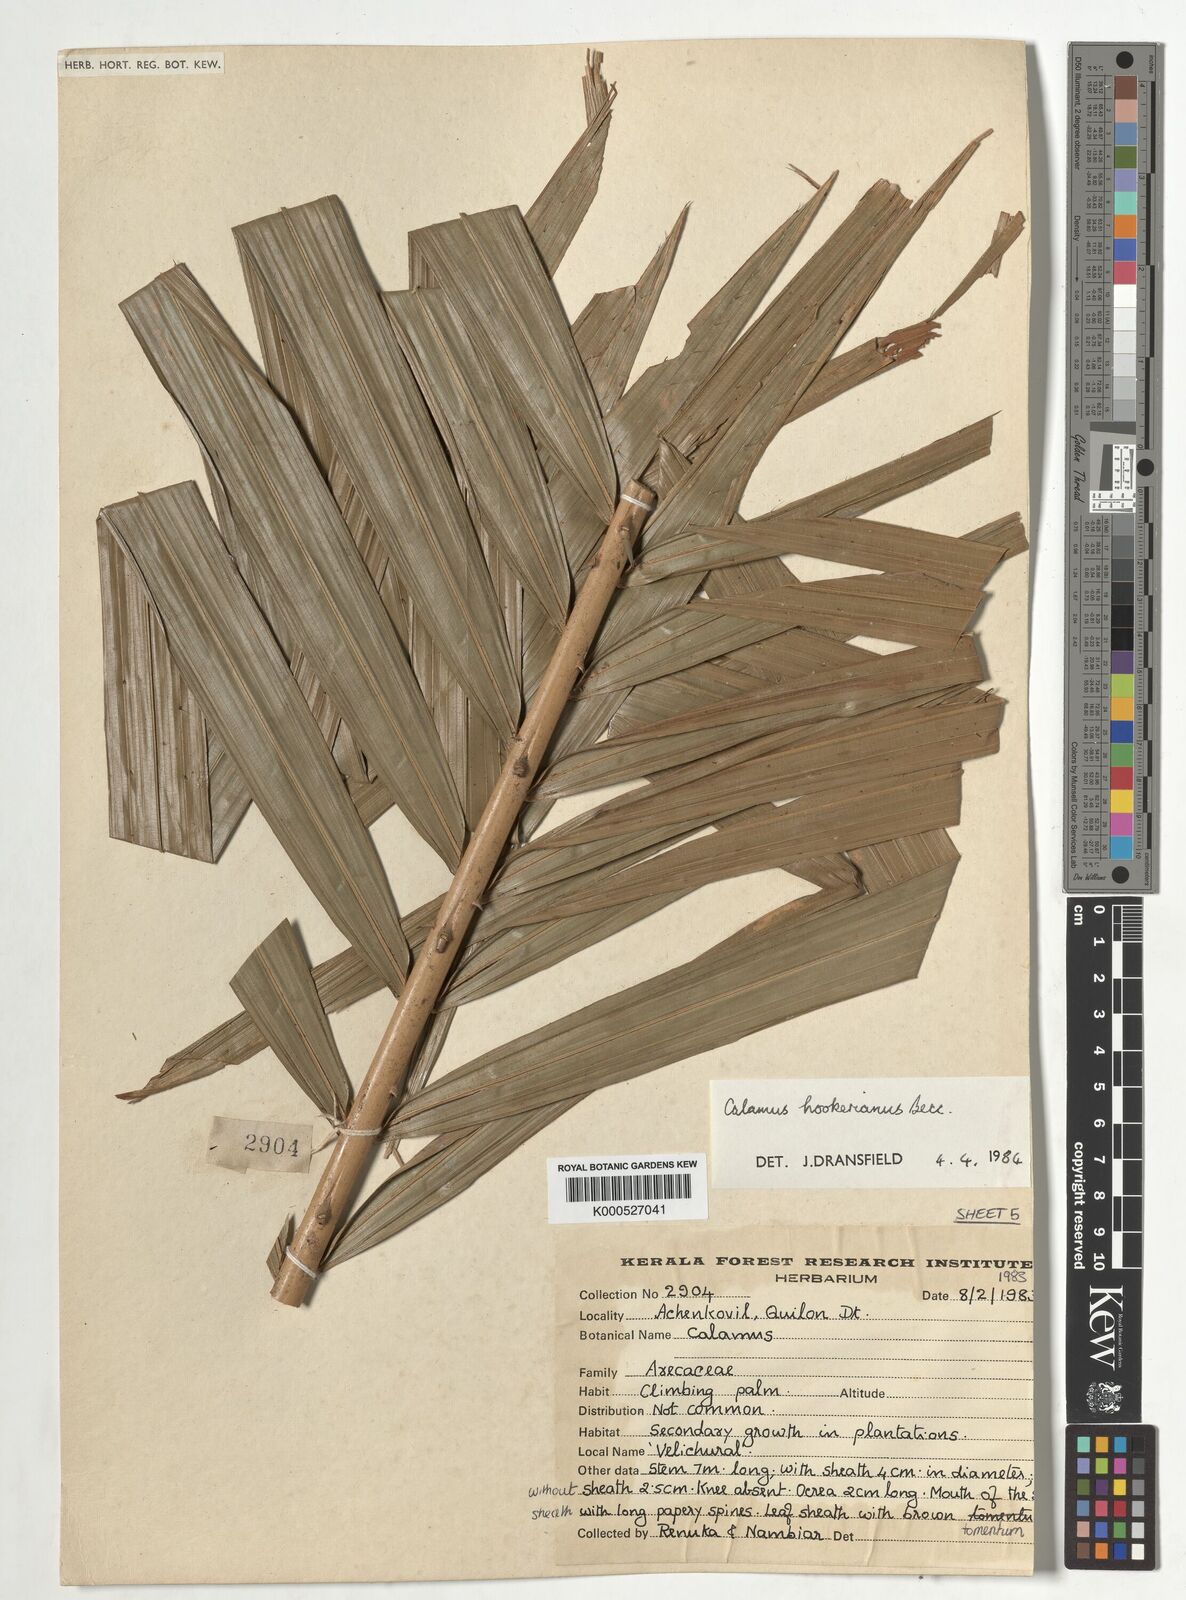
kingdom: Plantae
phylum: Tracheophyta
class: Liliopsida
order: Arecales
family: Arecaceae
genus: Calamus
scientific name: Calamus hookerianus
